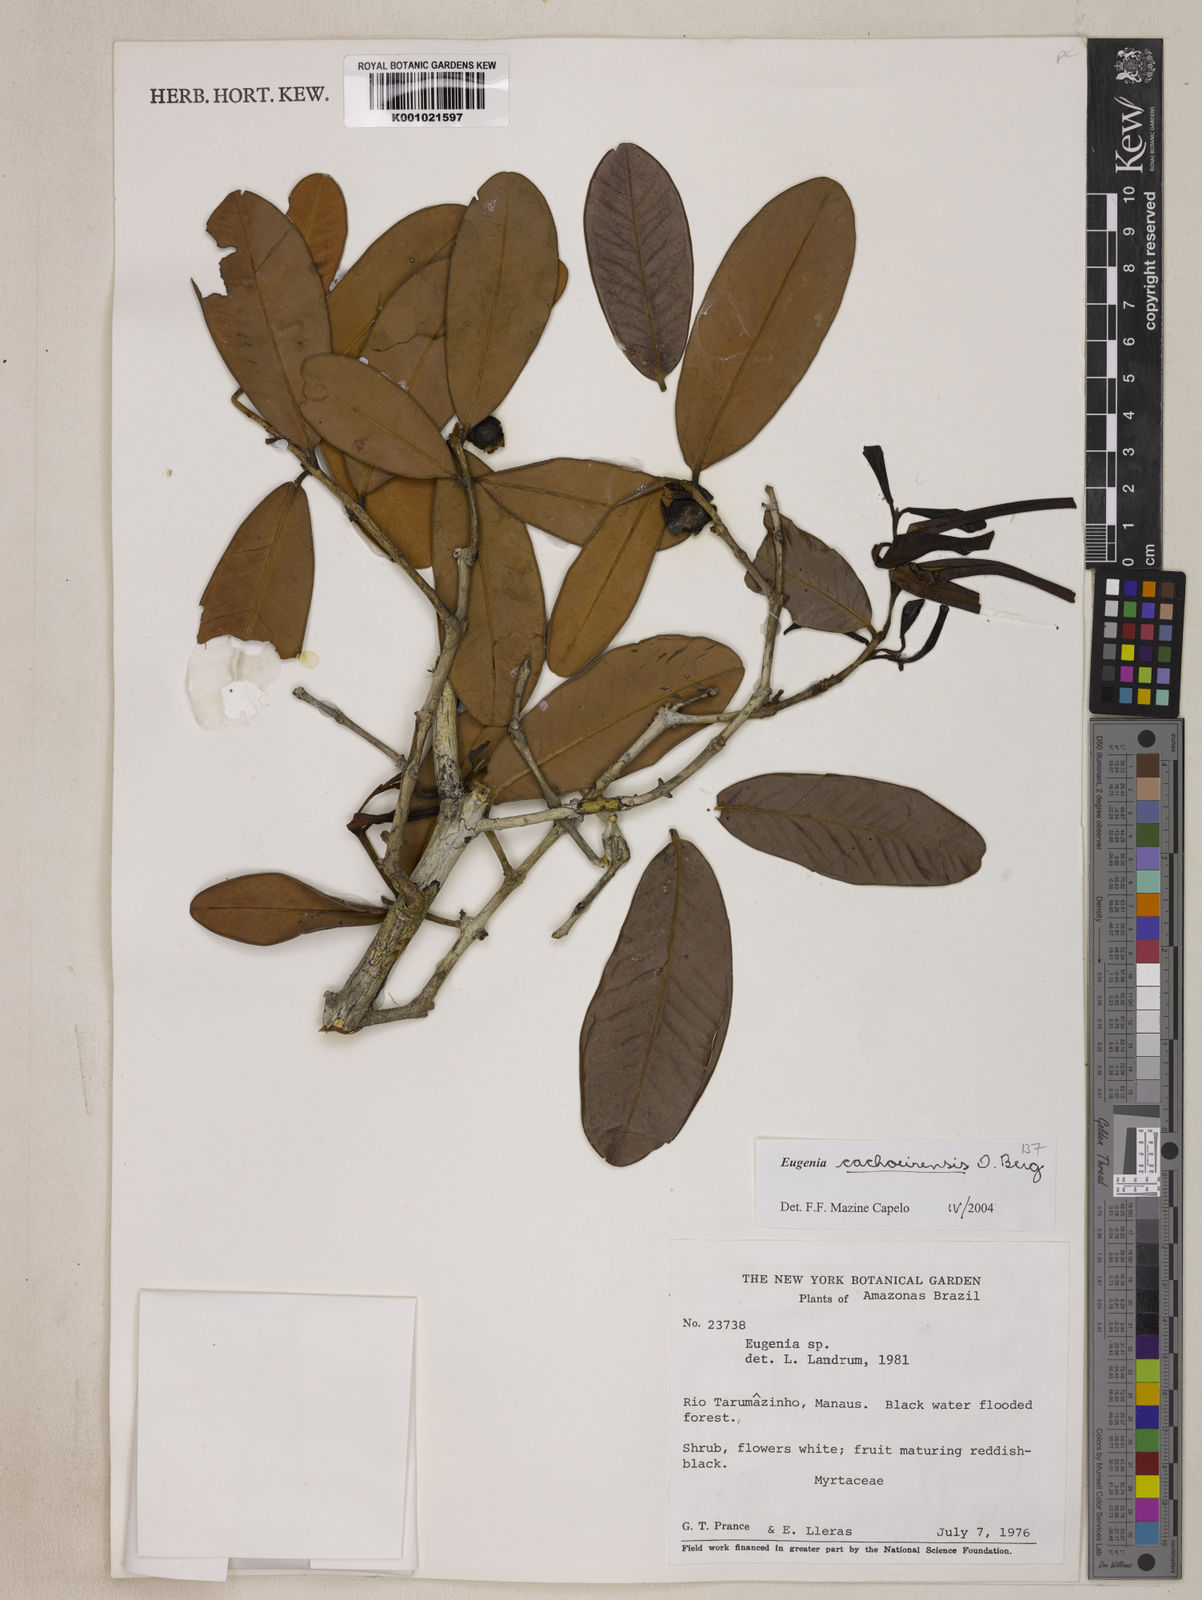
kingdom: Plantae
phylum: Tracheophyta
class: Magnoliopsida
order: Myrtales
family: Myrtaceae
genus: Eugenia
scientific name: Eugenia cachoeirensis
